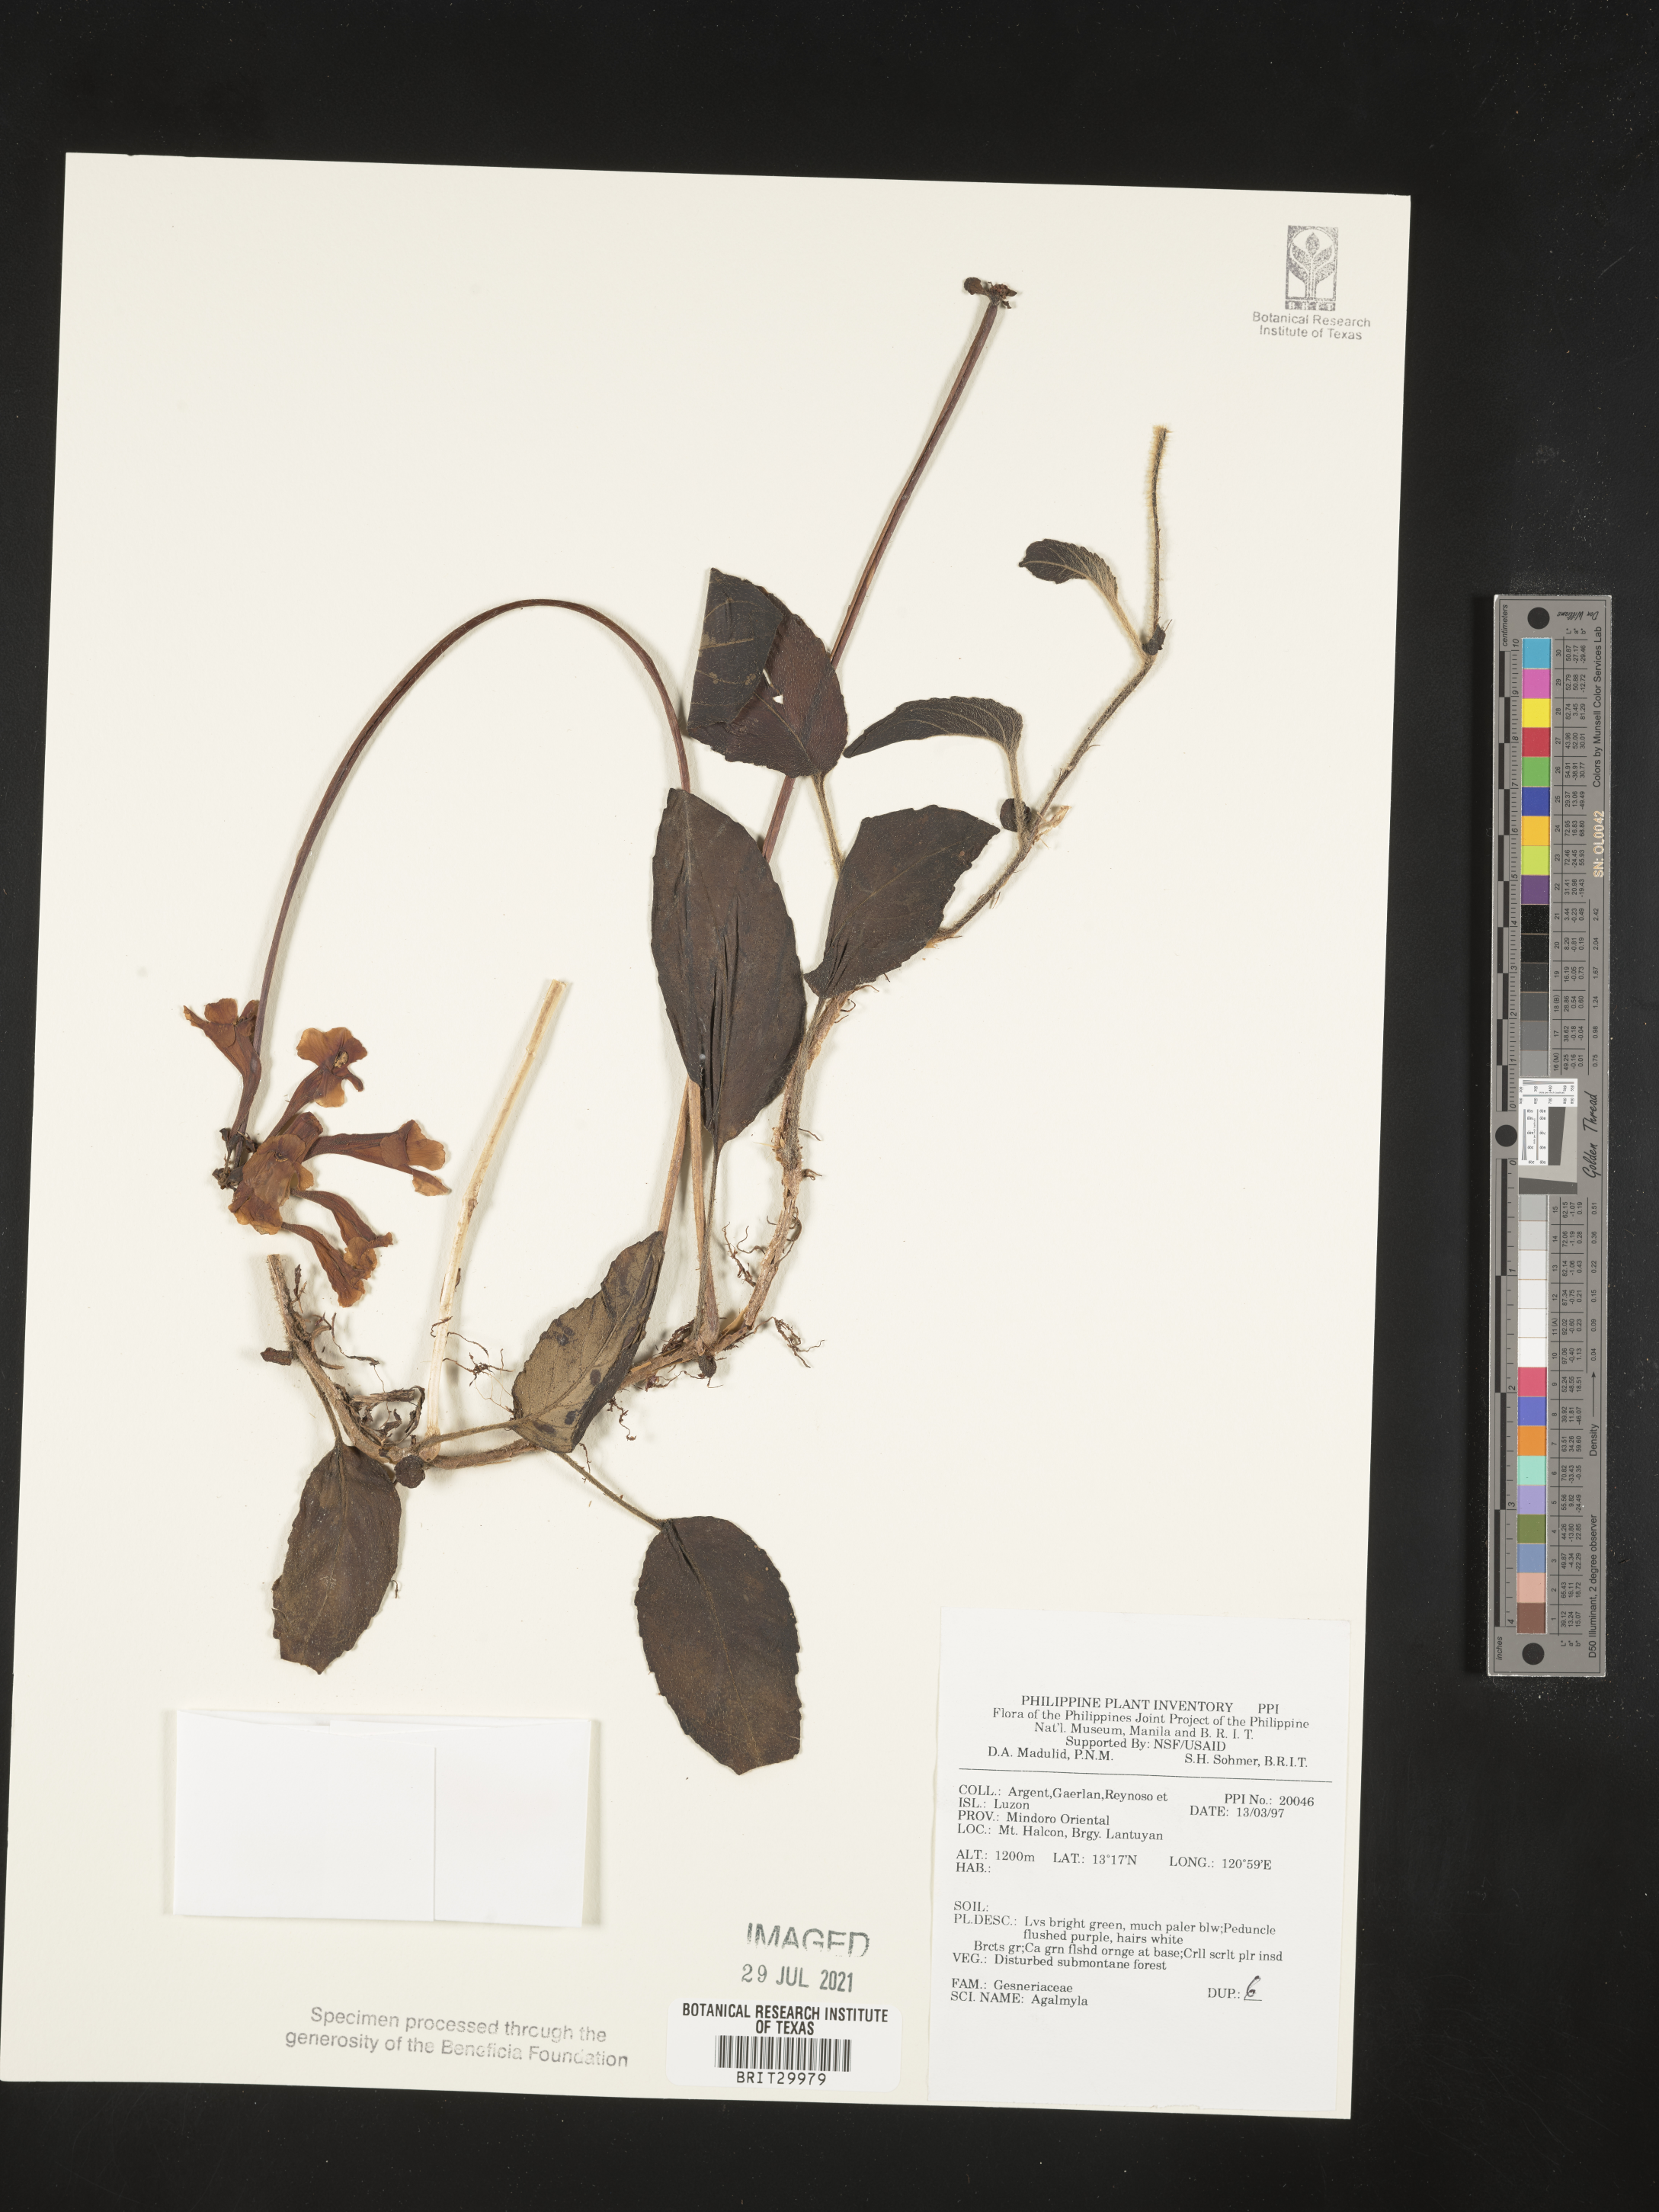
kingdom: Plantae
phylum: Tracheophyta
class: Magnoliopsida
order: Lamiales
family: Gesneriaceae
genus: Agalmyla
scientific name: Agalmyla
